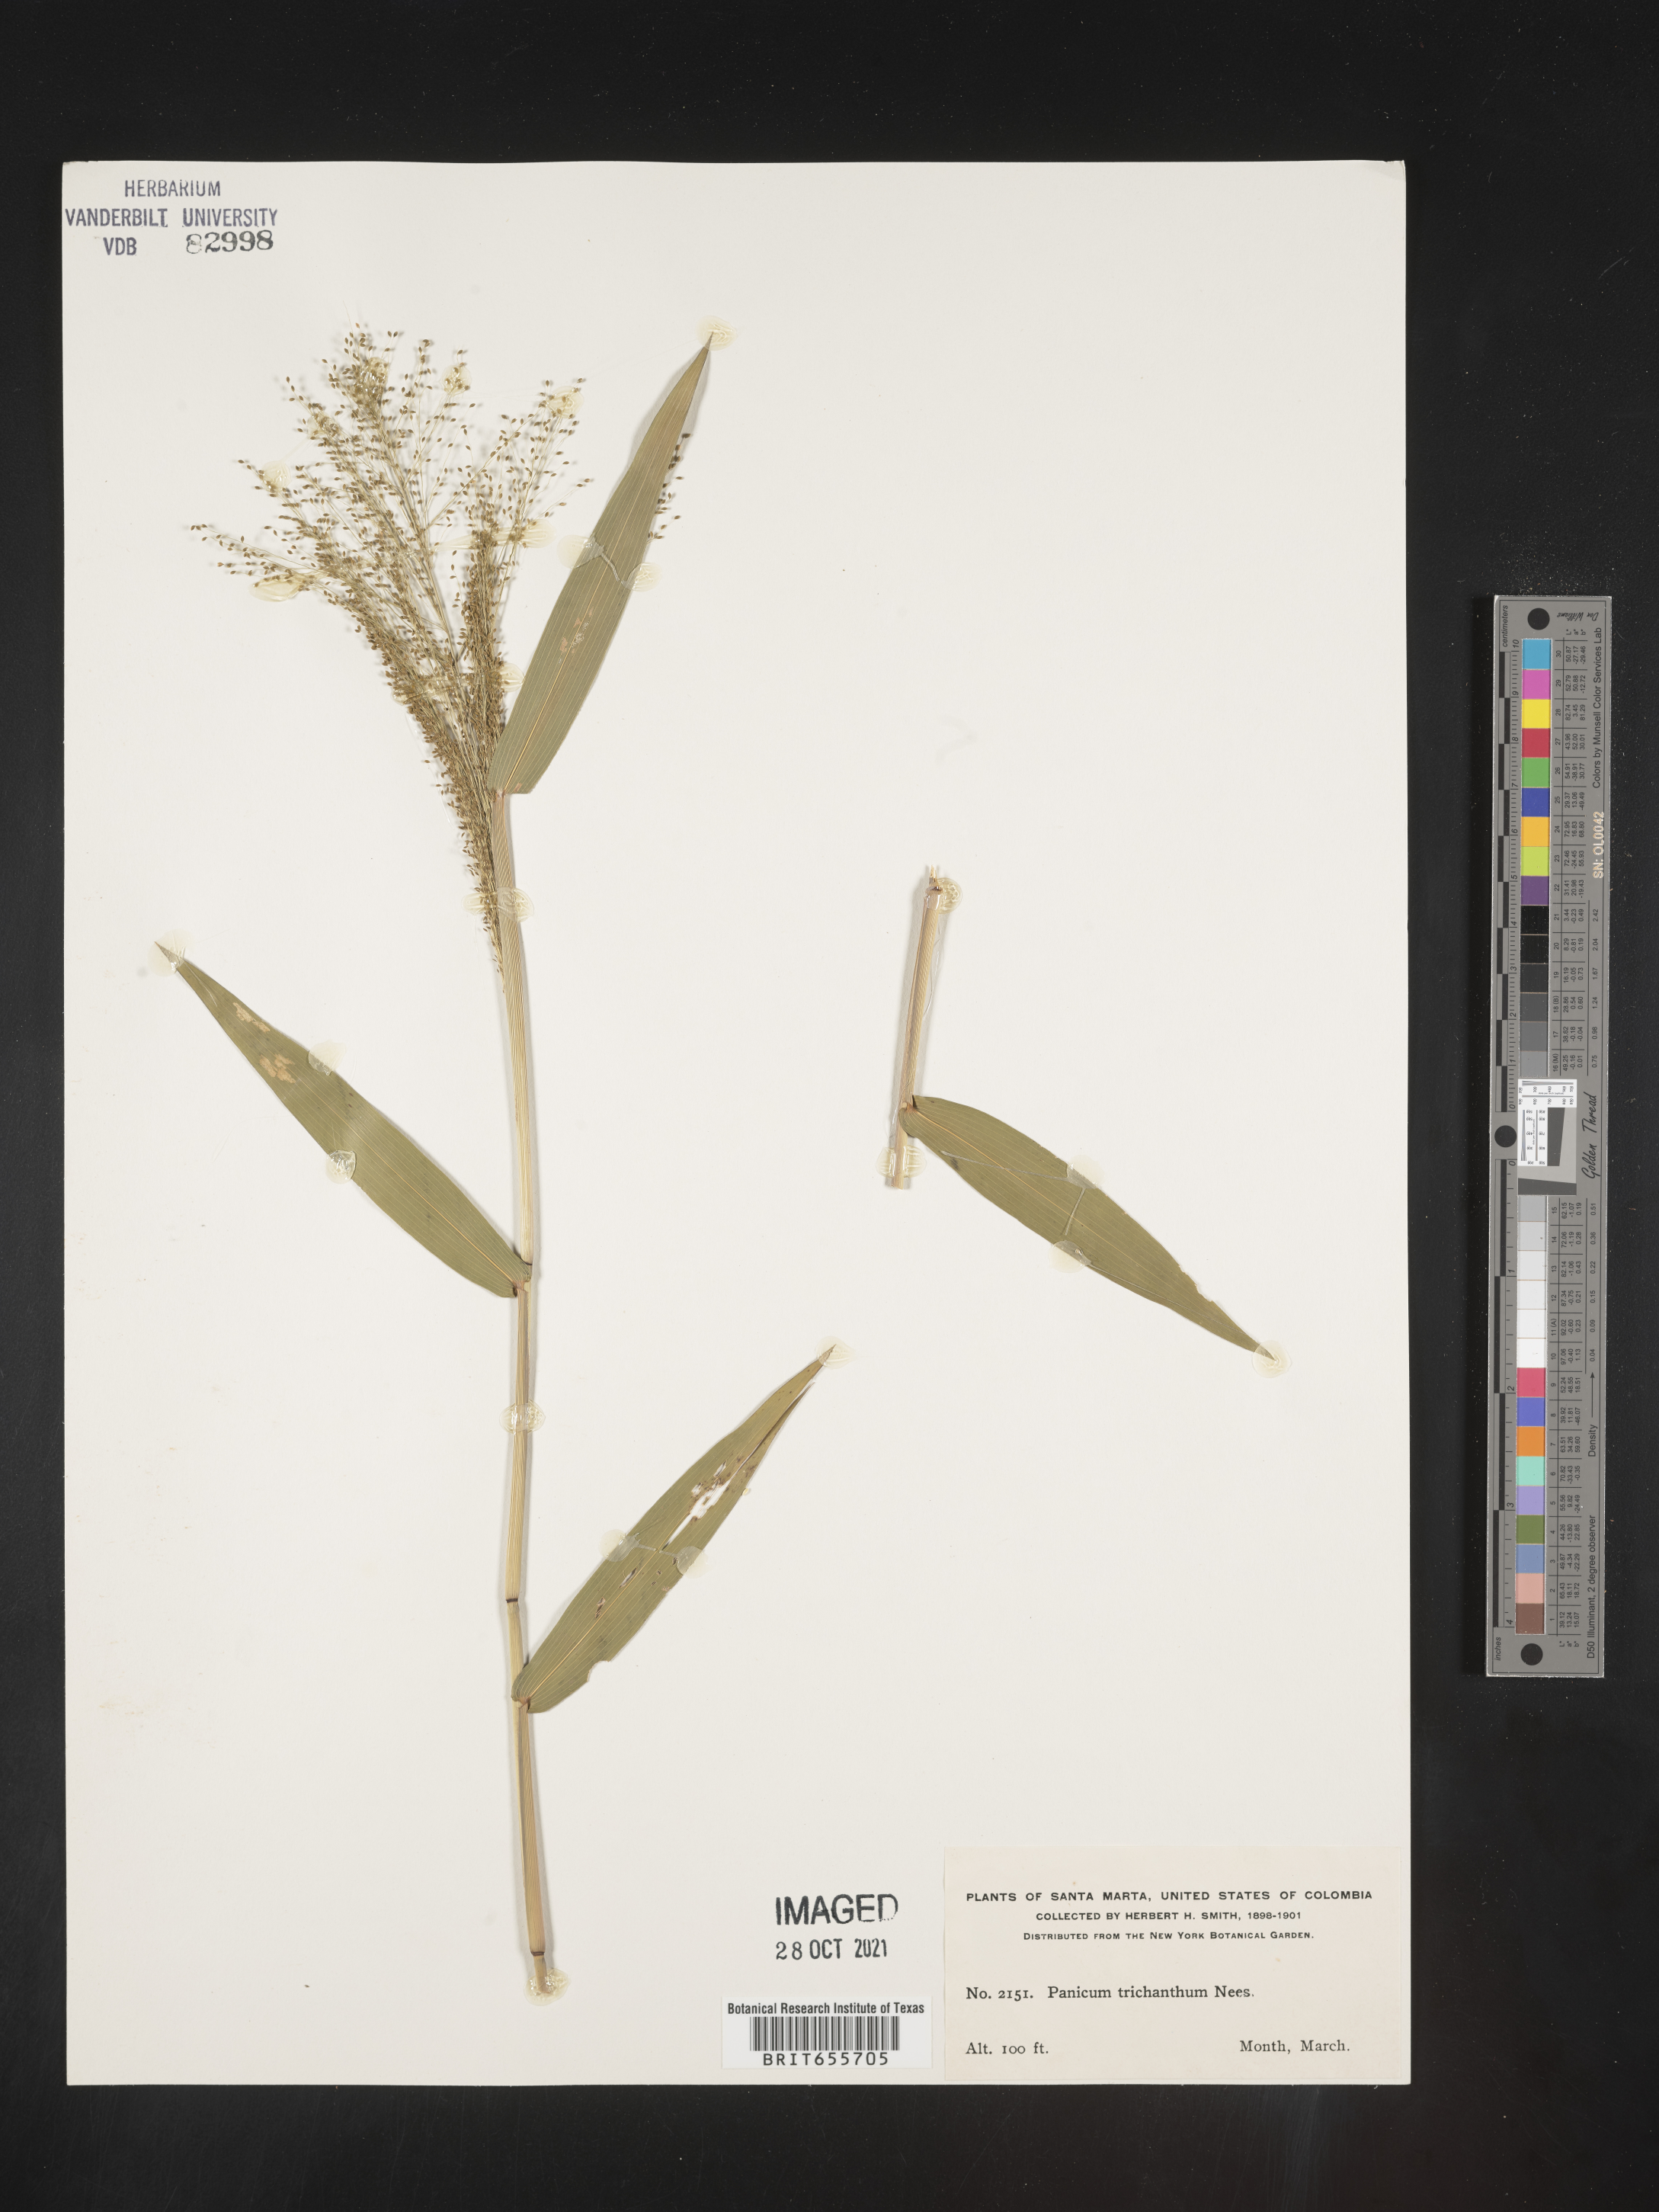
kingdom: Plantae
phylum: Tracheophyta
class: Liliopsida
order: Poales
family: Poaceae
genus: Panicum
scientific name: Panicum
